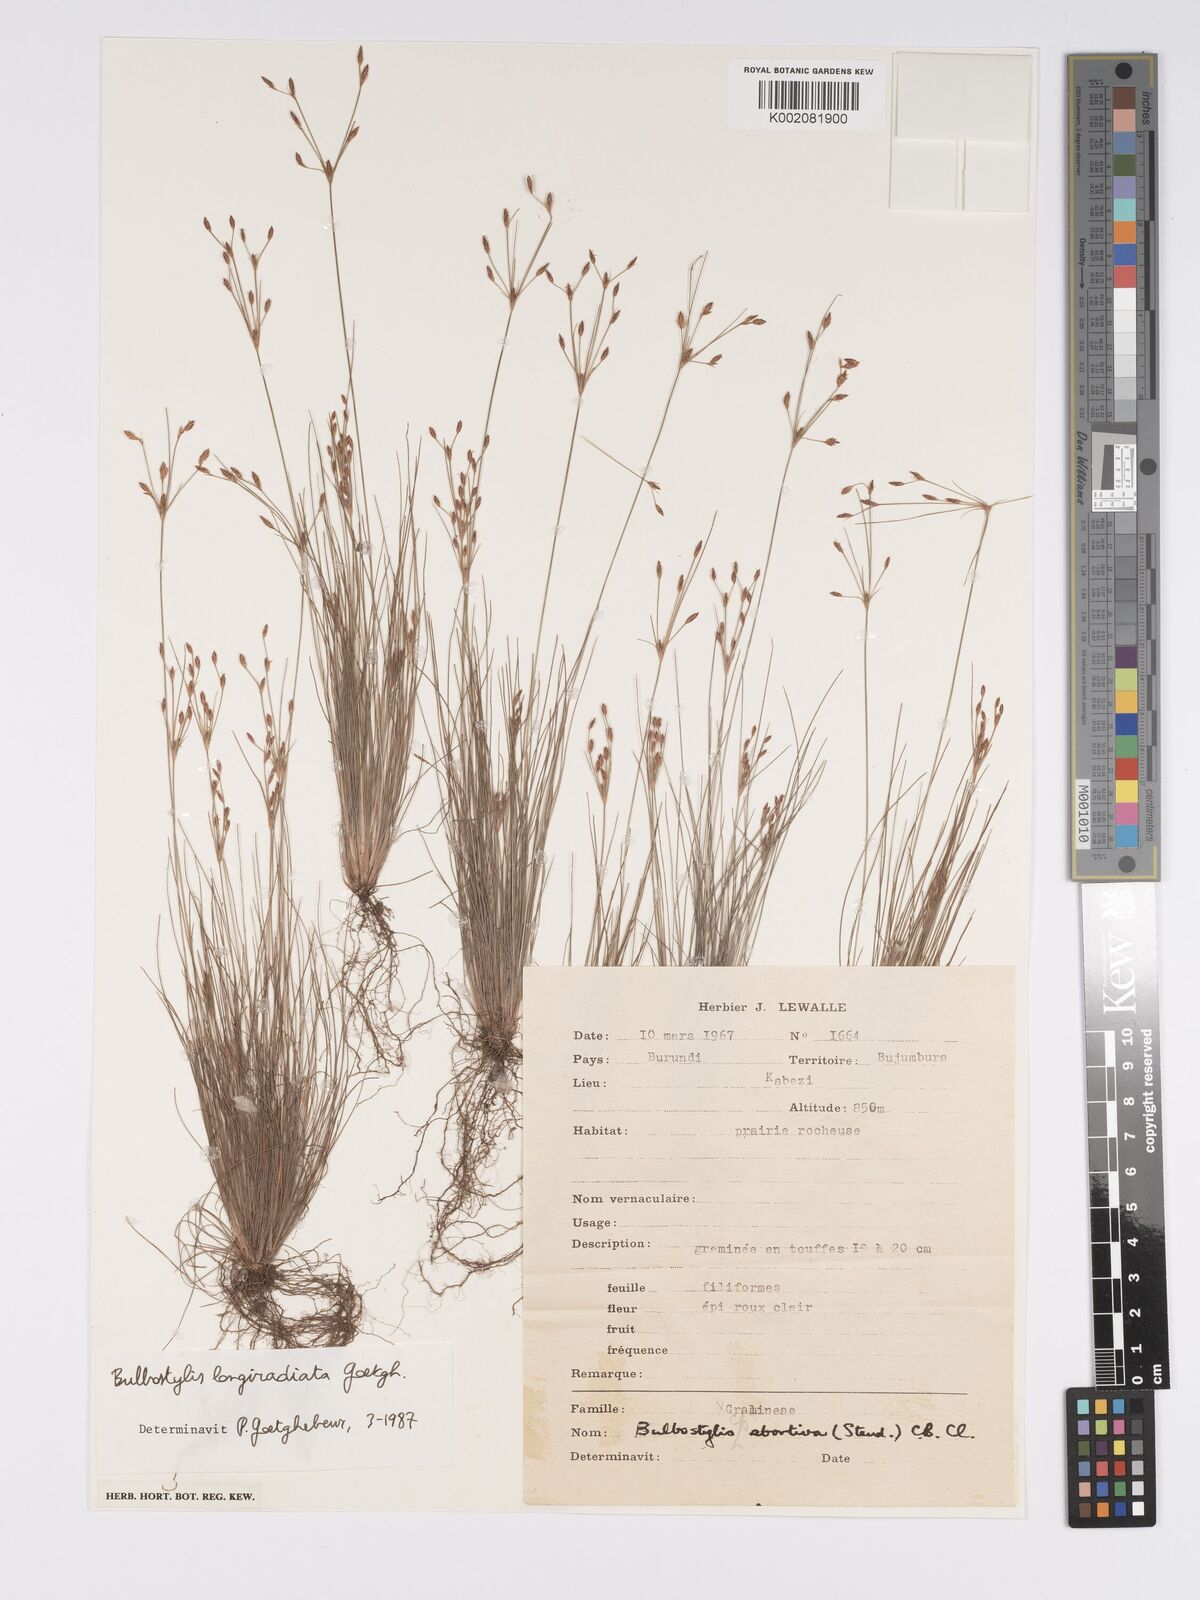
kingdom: Plantae
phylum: Tracheophyta
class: Liliopsida
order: Poales
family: Cyperaceae
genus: Bulbostylis
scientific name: Bulbostylis longiradiata
